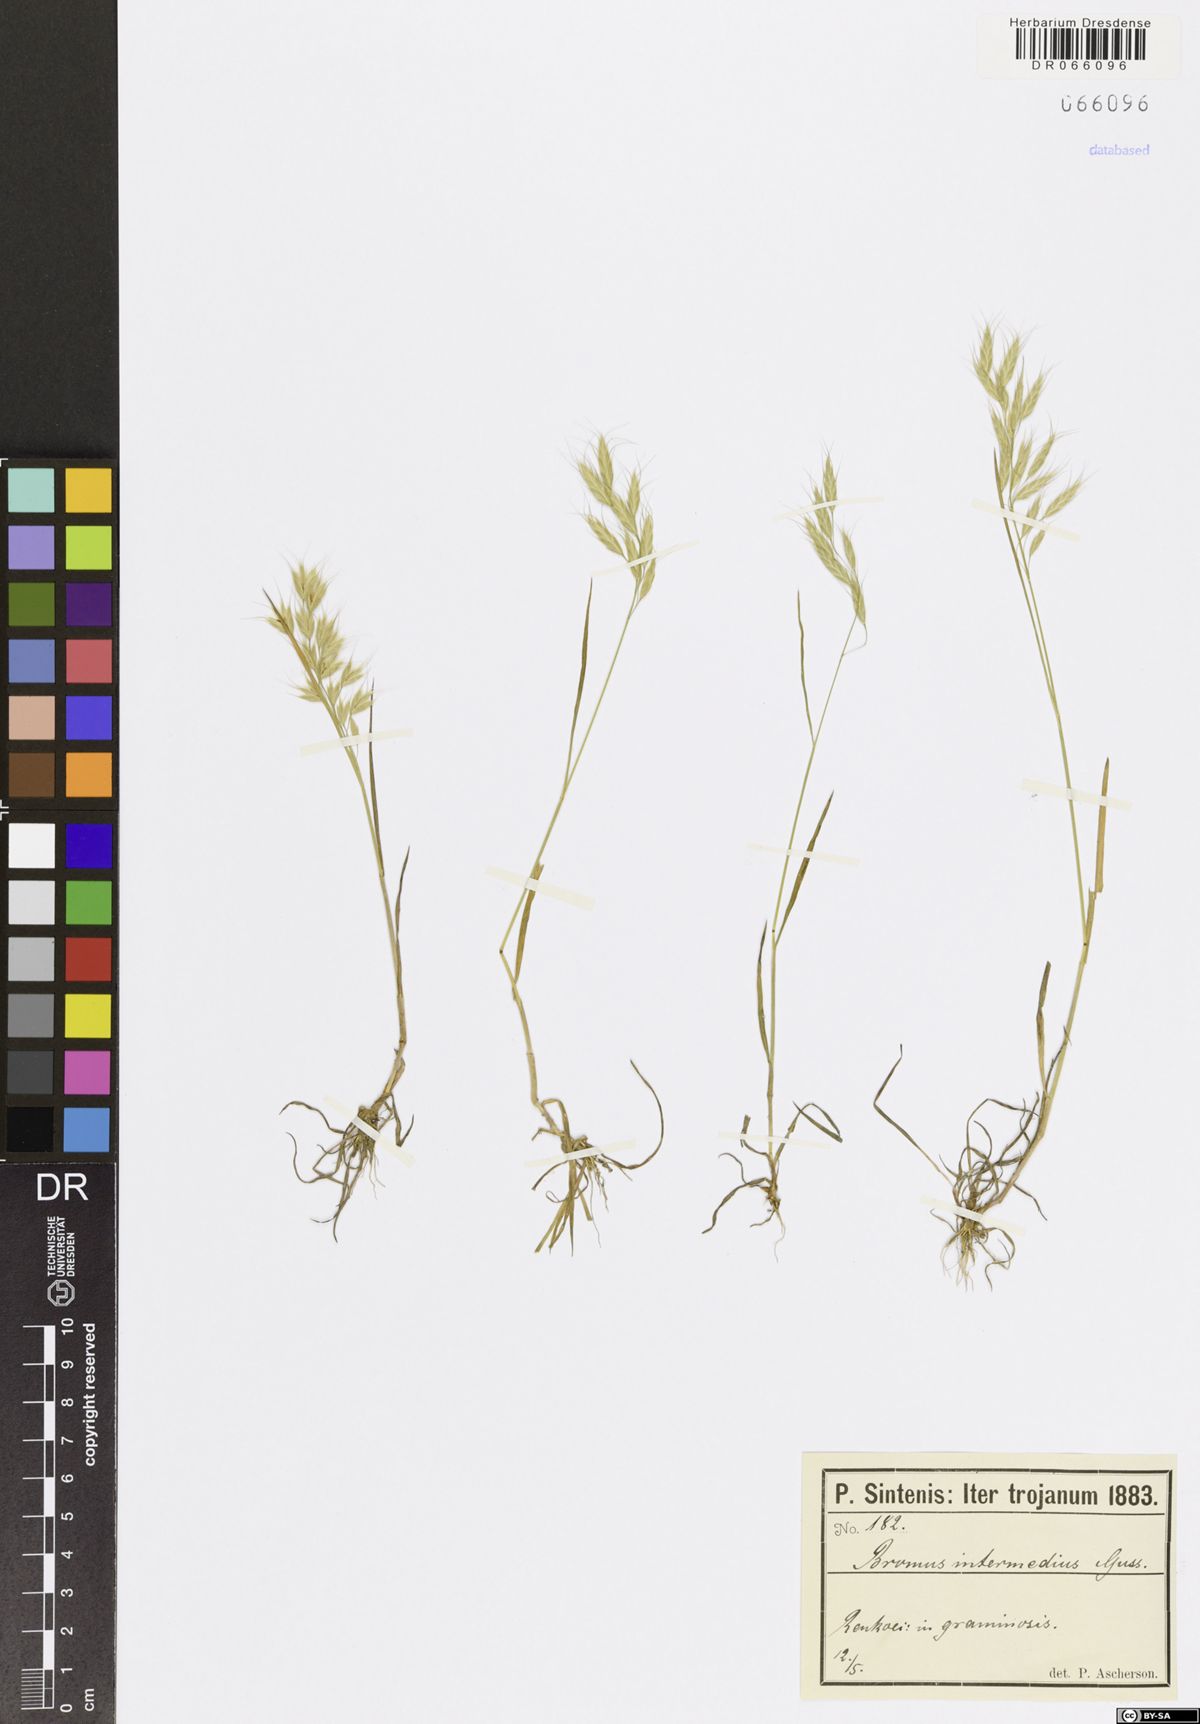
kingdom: Plantae
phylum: Tracheophyta
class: Liliopsida
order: Poales
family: Poaceae
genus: Bromus
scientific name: Bromus intermedius
